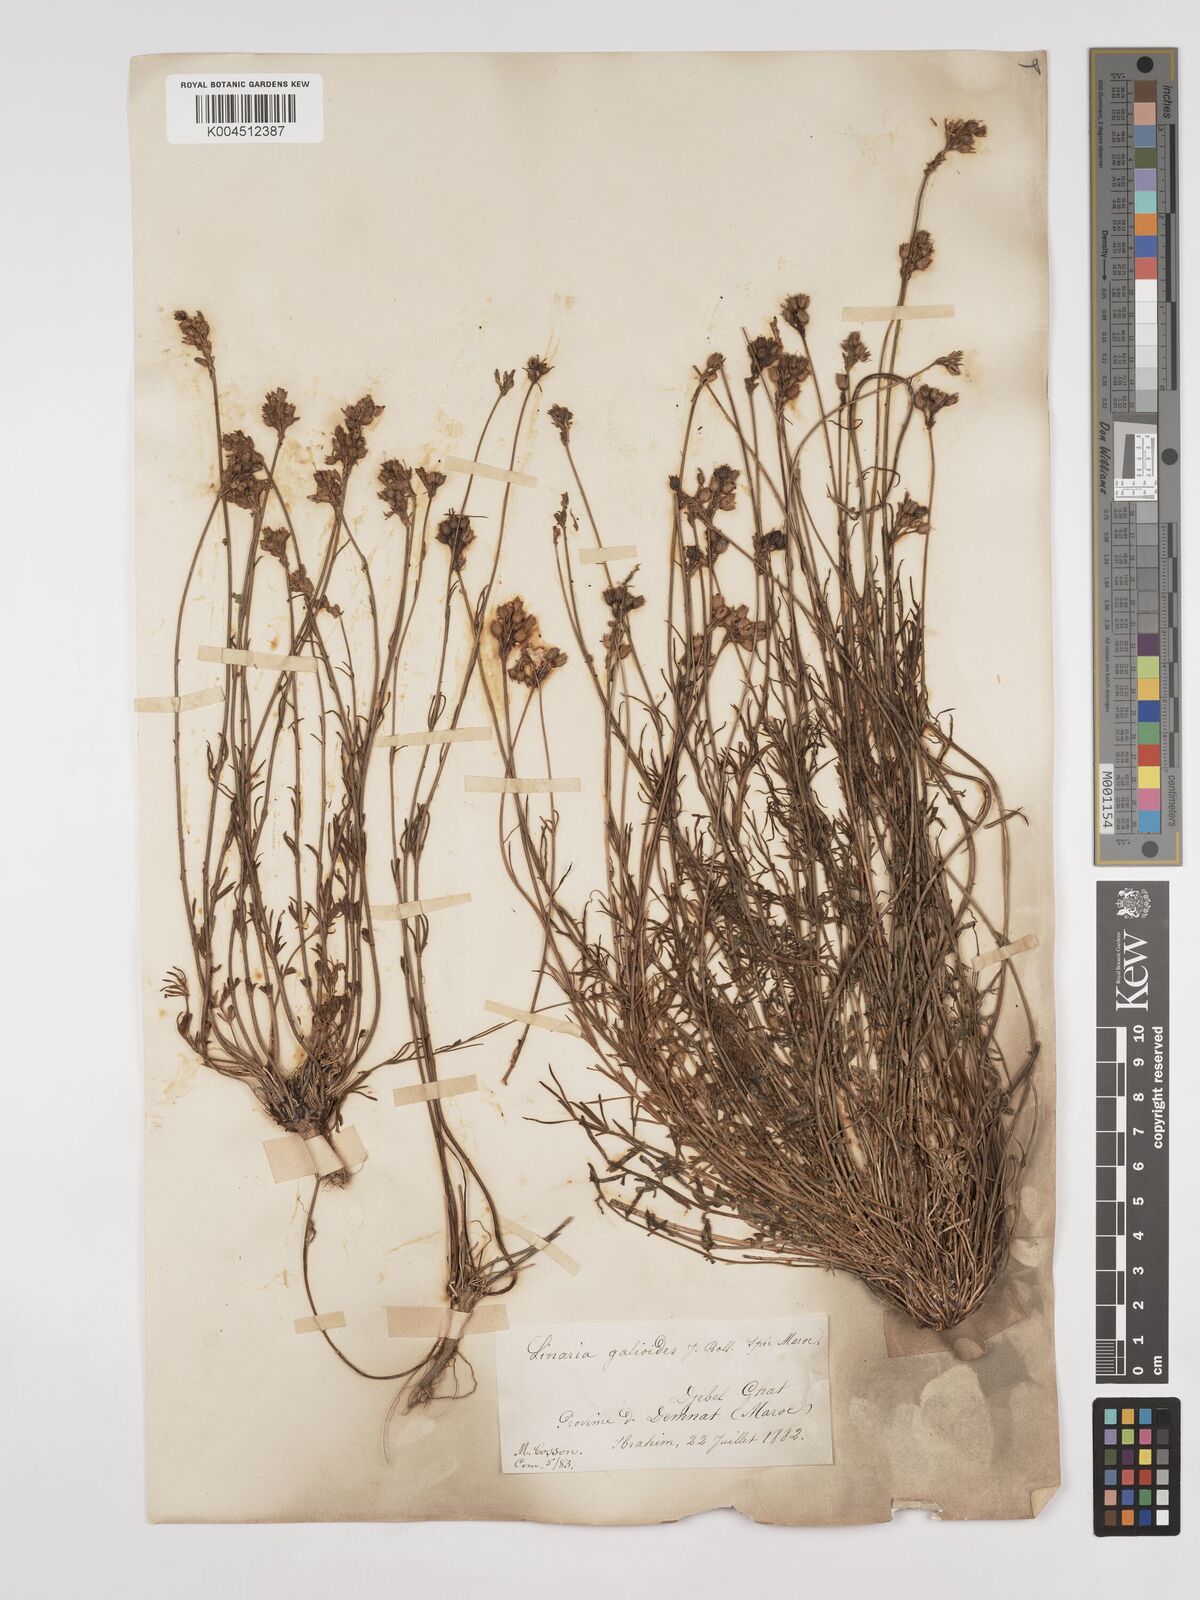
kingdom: Plantae
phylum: Tracheophyta
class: Magnoliopsida
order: Lamiales
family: Plantaginaceae
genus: Linaria
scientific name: Linaria
